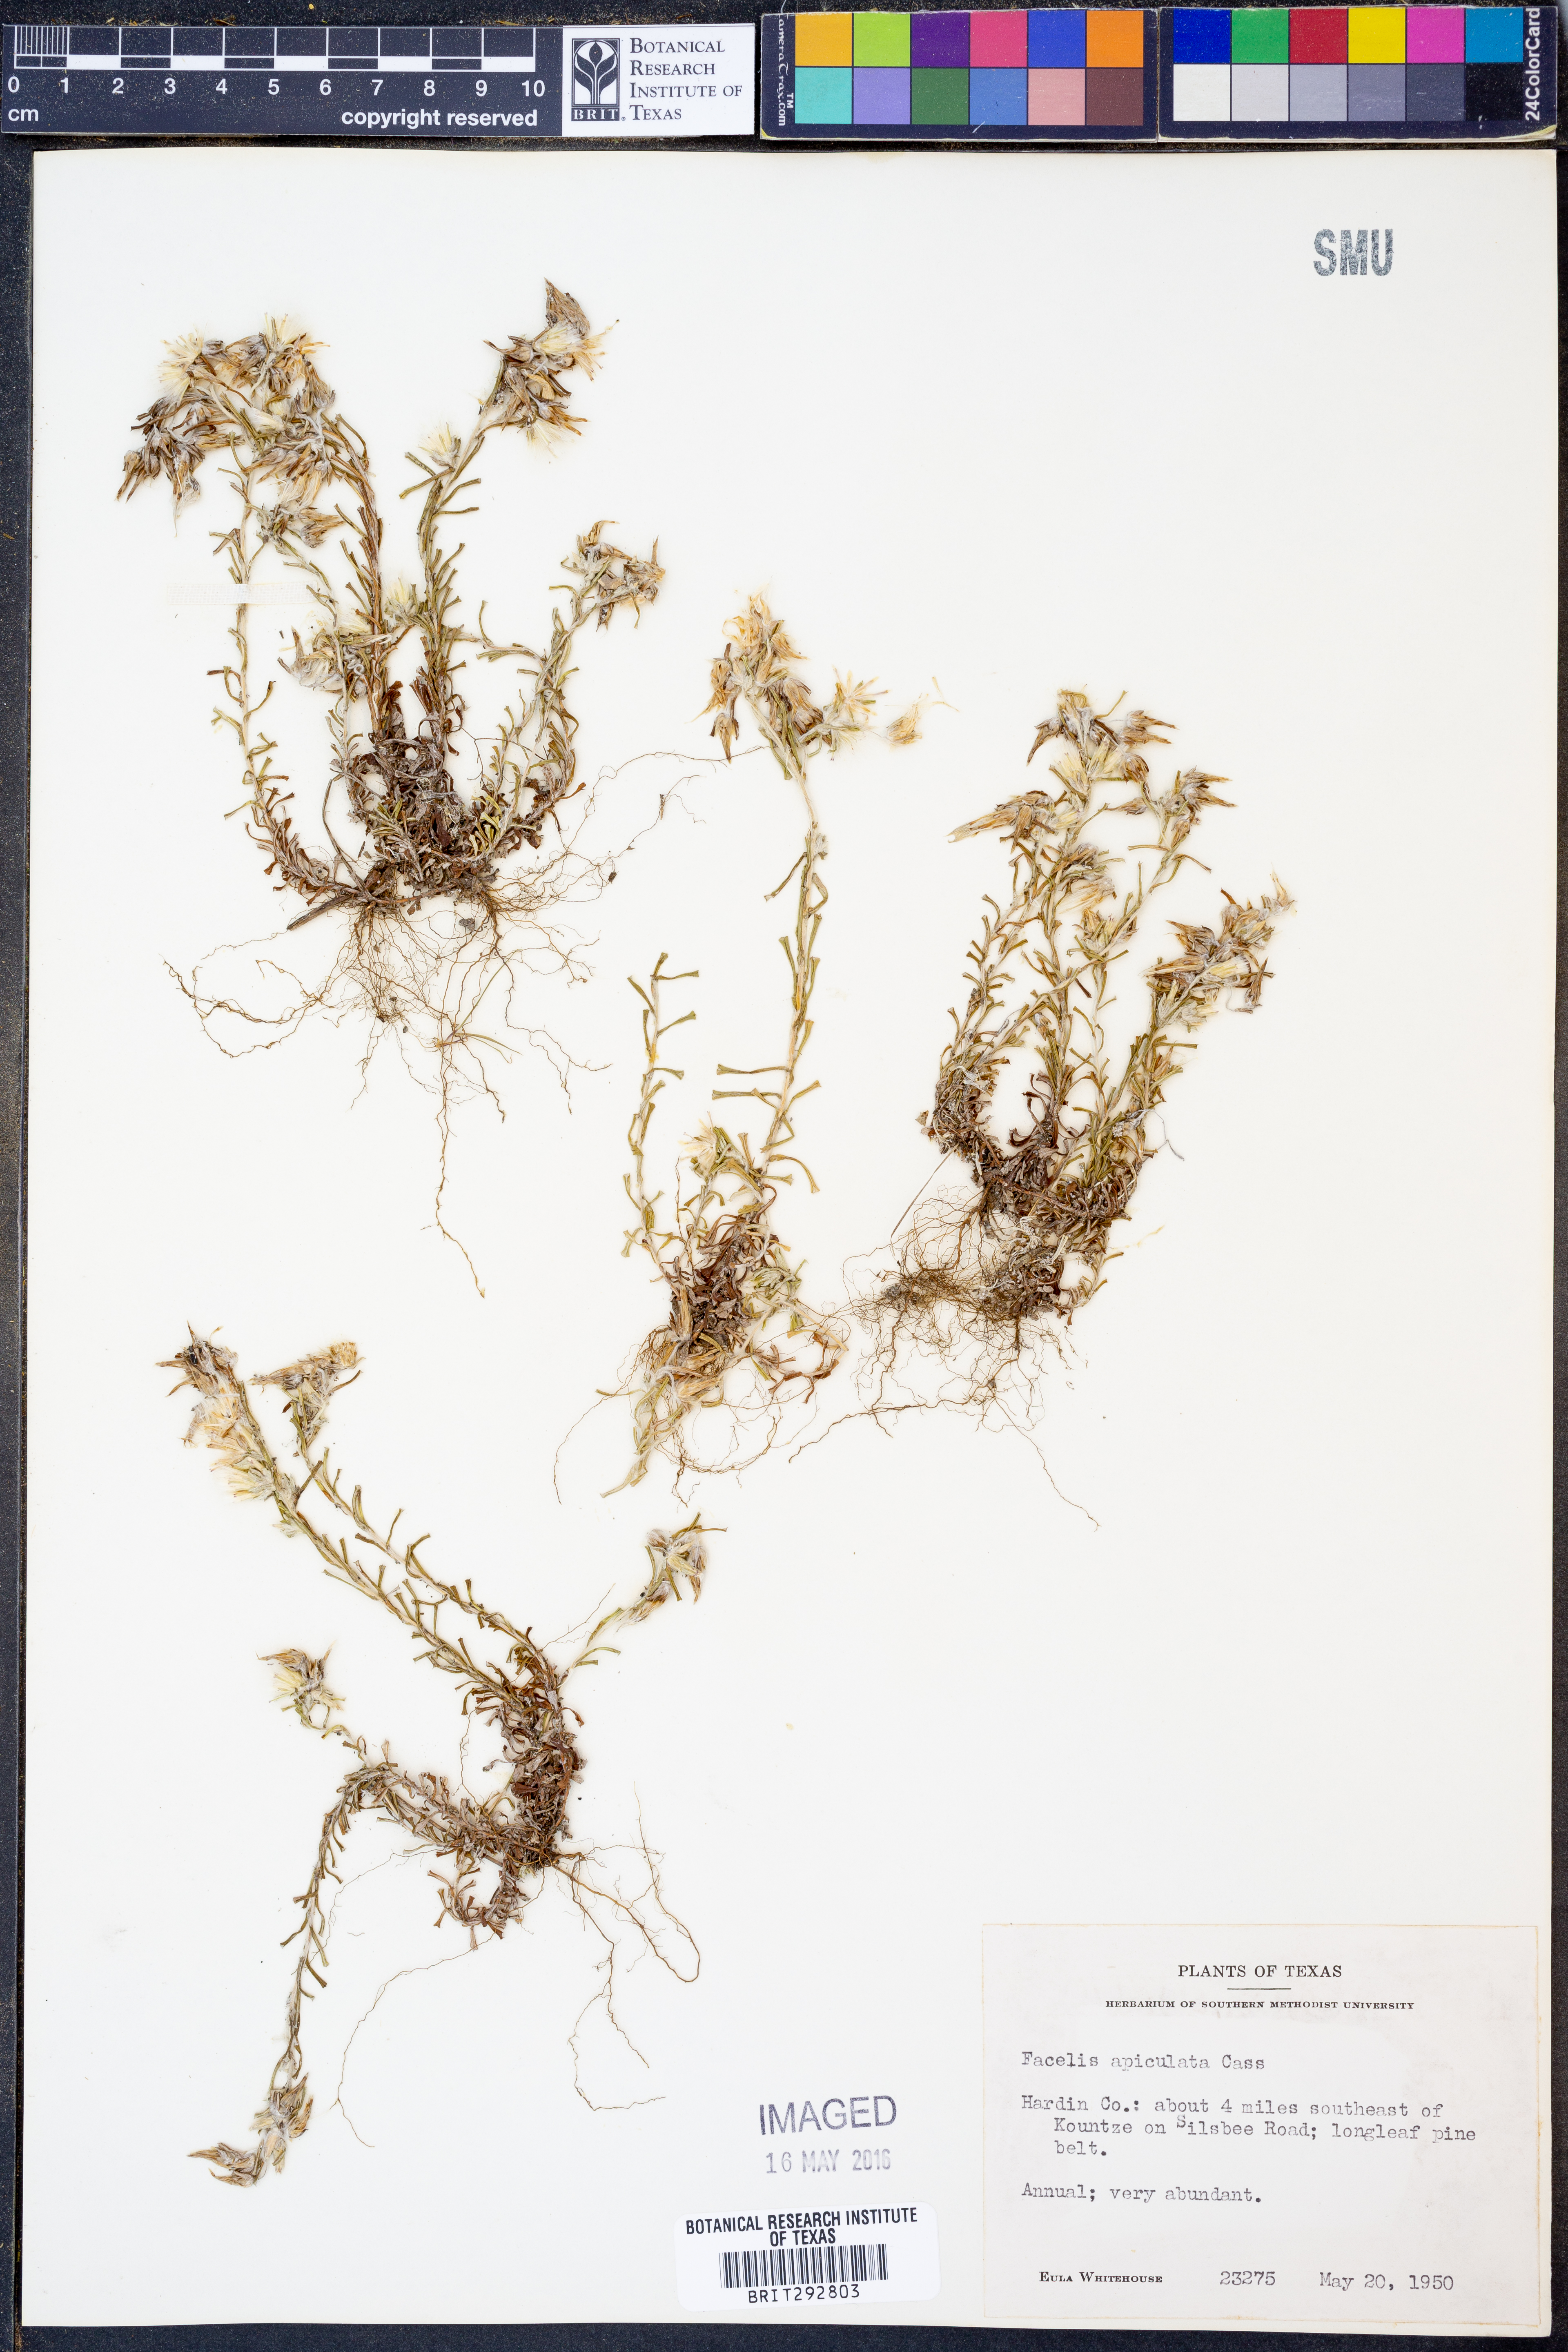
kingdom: Plantae
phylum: Tracheophyta
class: Magnoliopsida
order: Asterales
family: Asteraceae
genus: Facelis
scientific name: Facelis retusa
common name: Annual trampweed
